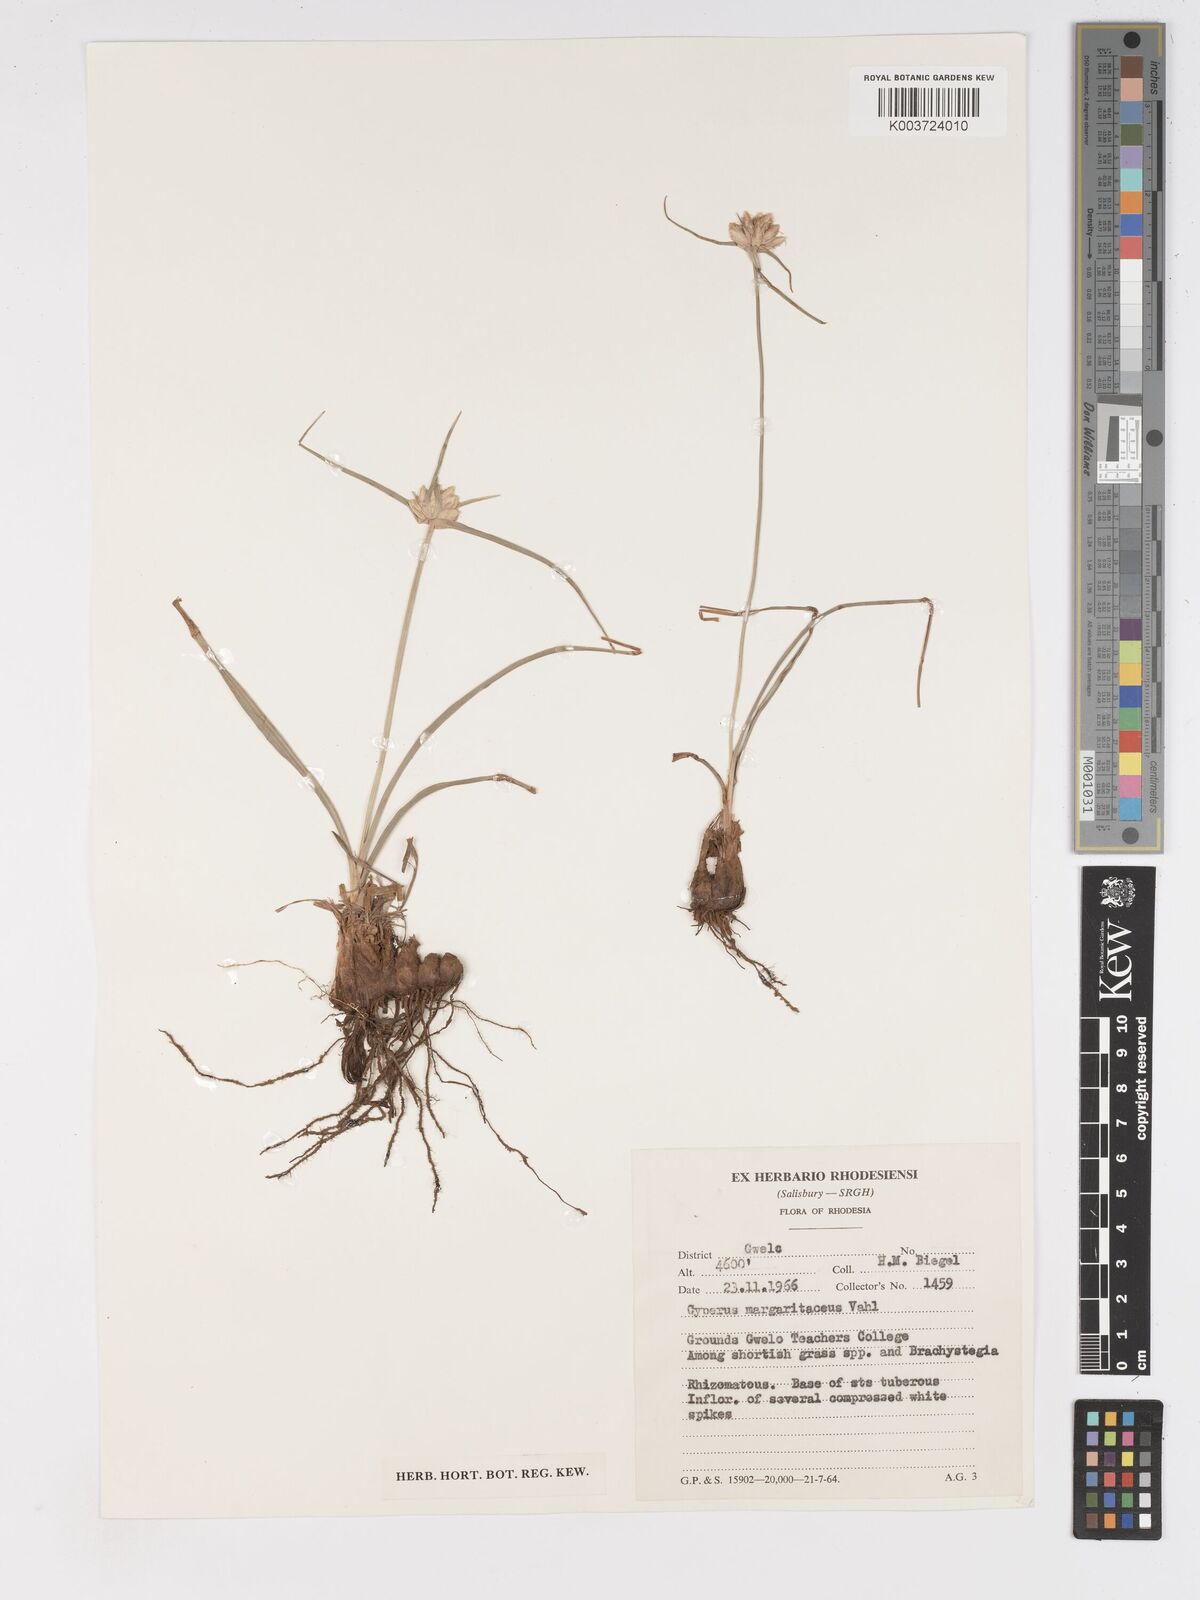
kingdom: Plantae
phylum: Tracheophyta
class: Liliopsida
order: Poales
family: Cyperaceae
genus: Cyperus
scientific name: Cyperus niveus
